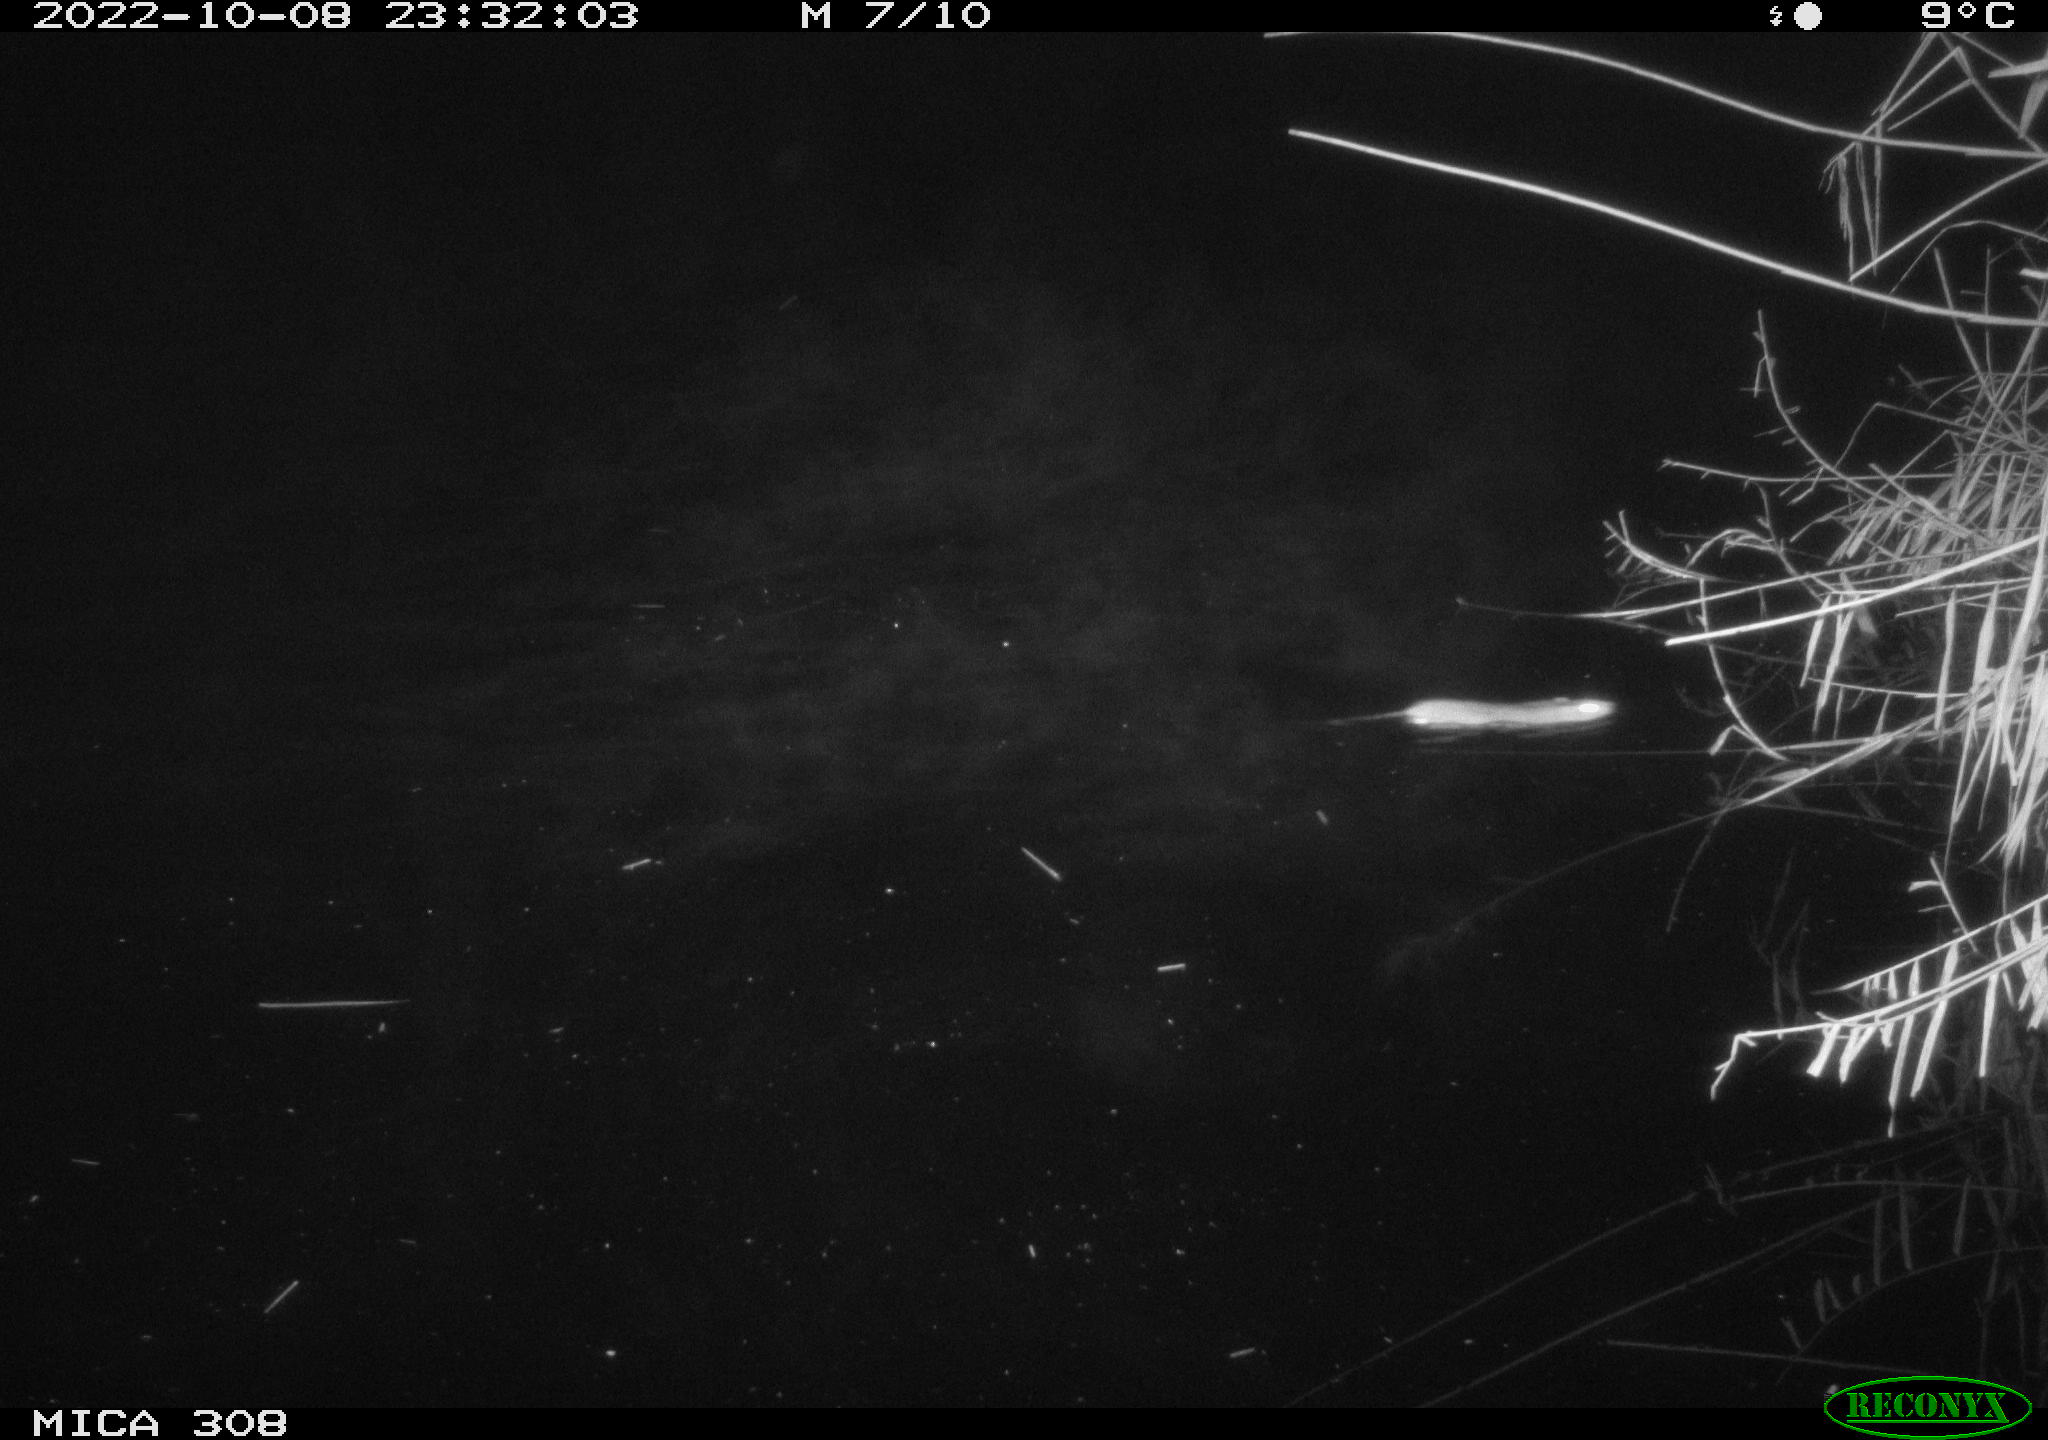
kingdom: Animalia
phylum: Chordata
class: Mammalia
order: Rodentia
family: Muridae
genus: Rattus
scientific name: Rattus norvegicus
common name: Brown rat
